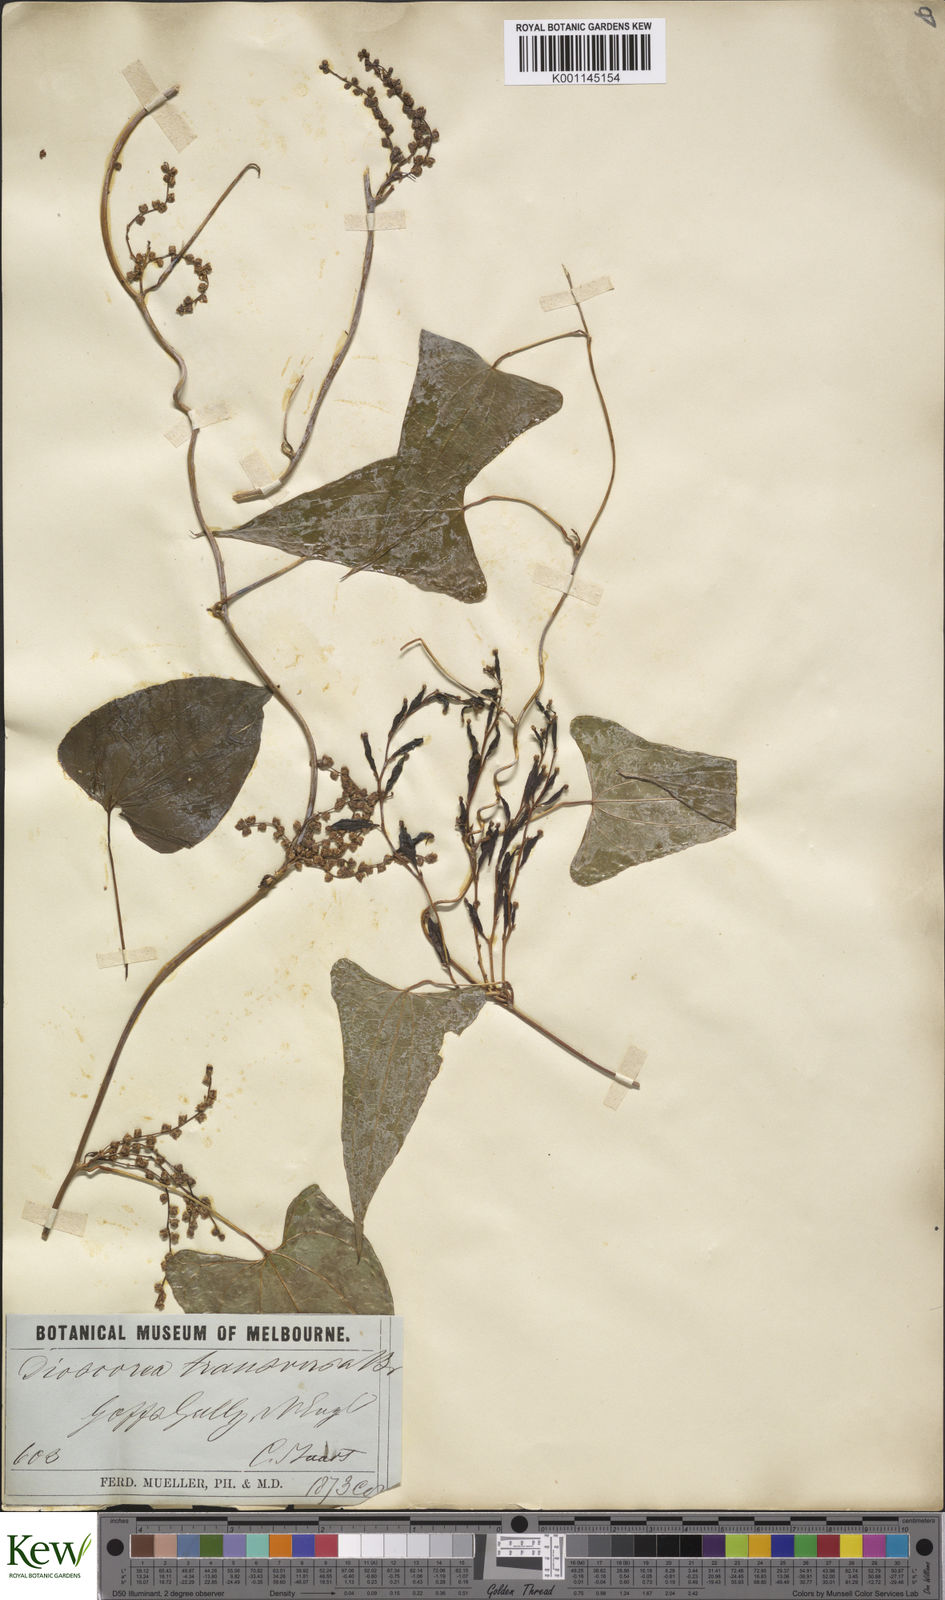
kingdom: Plantae
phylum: Tracheophyta
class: Liliopsida
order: Dioscoreales
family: Dioscoreaceae
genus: Dioscorea
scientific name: Dioscorea transversa
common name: Long yam
